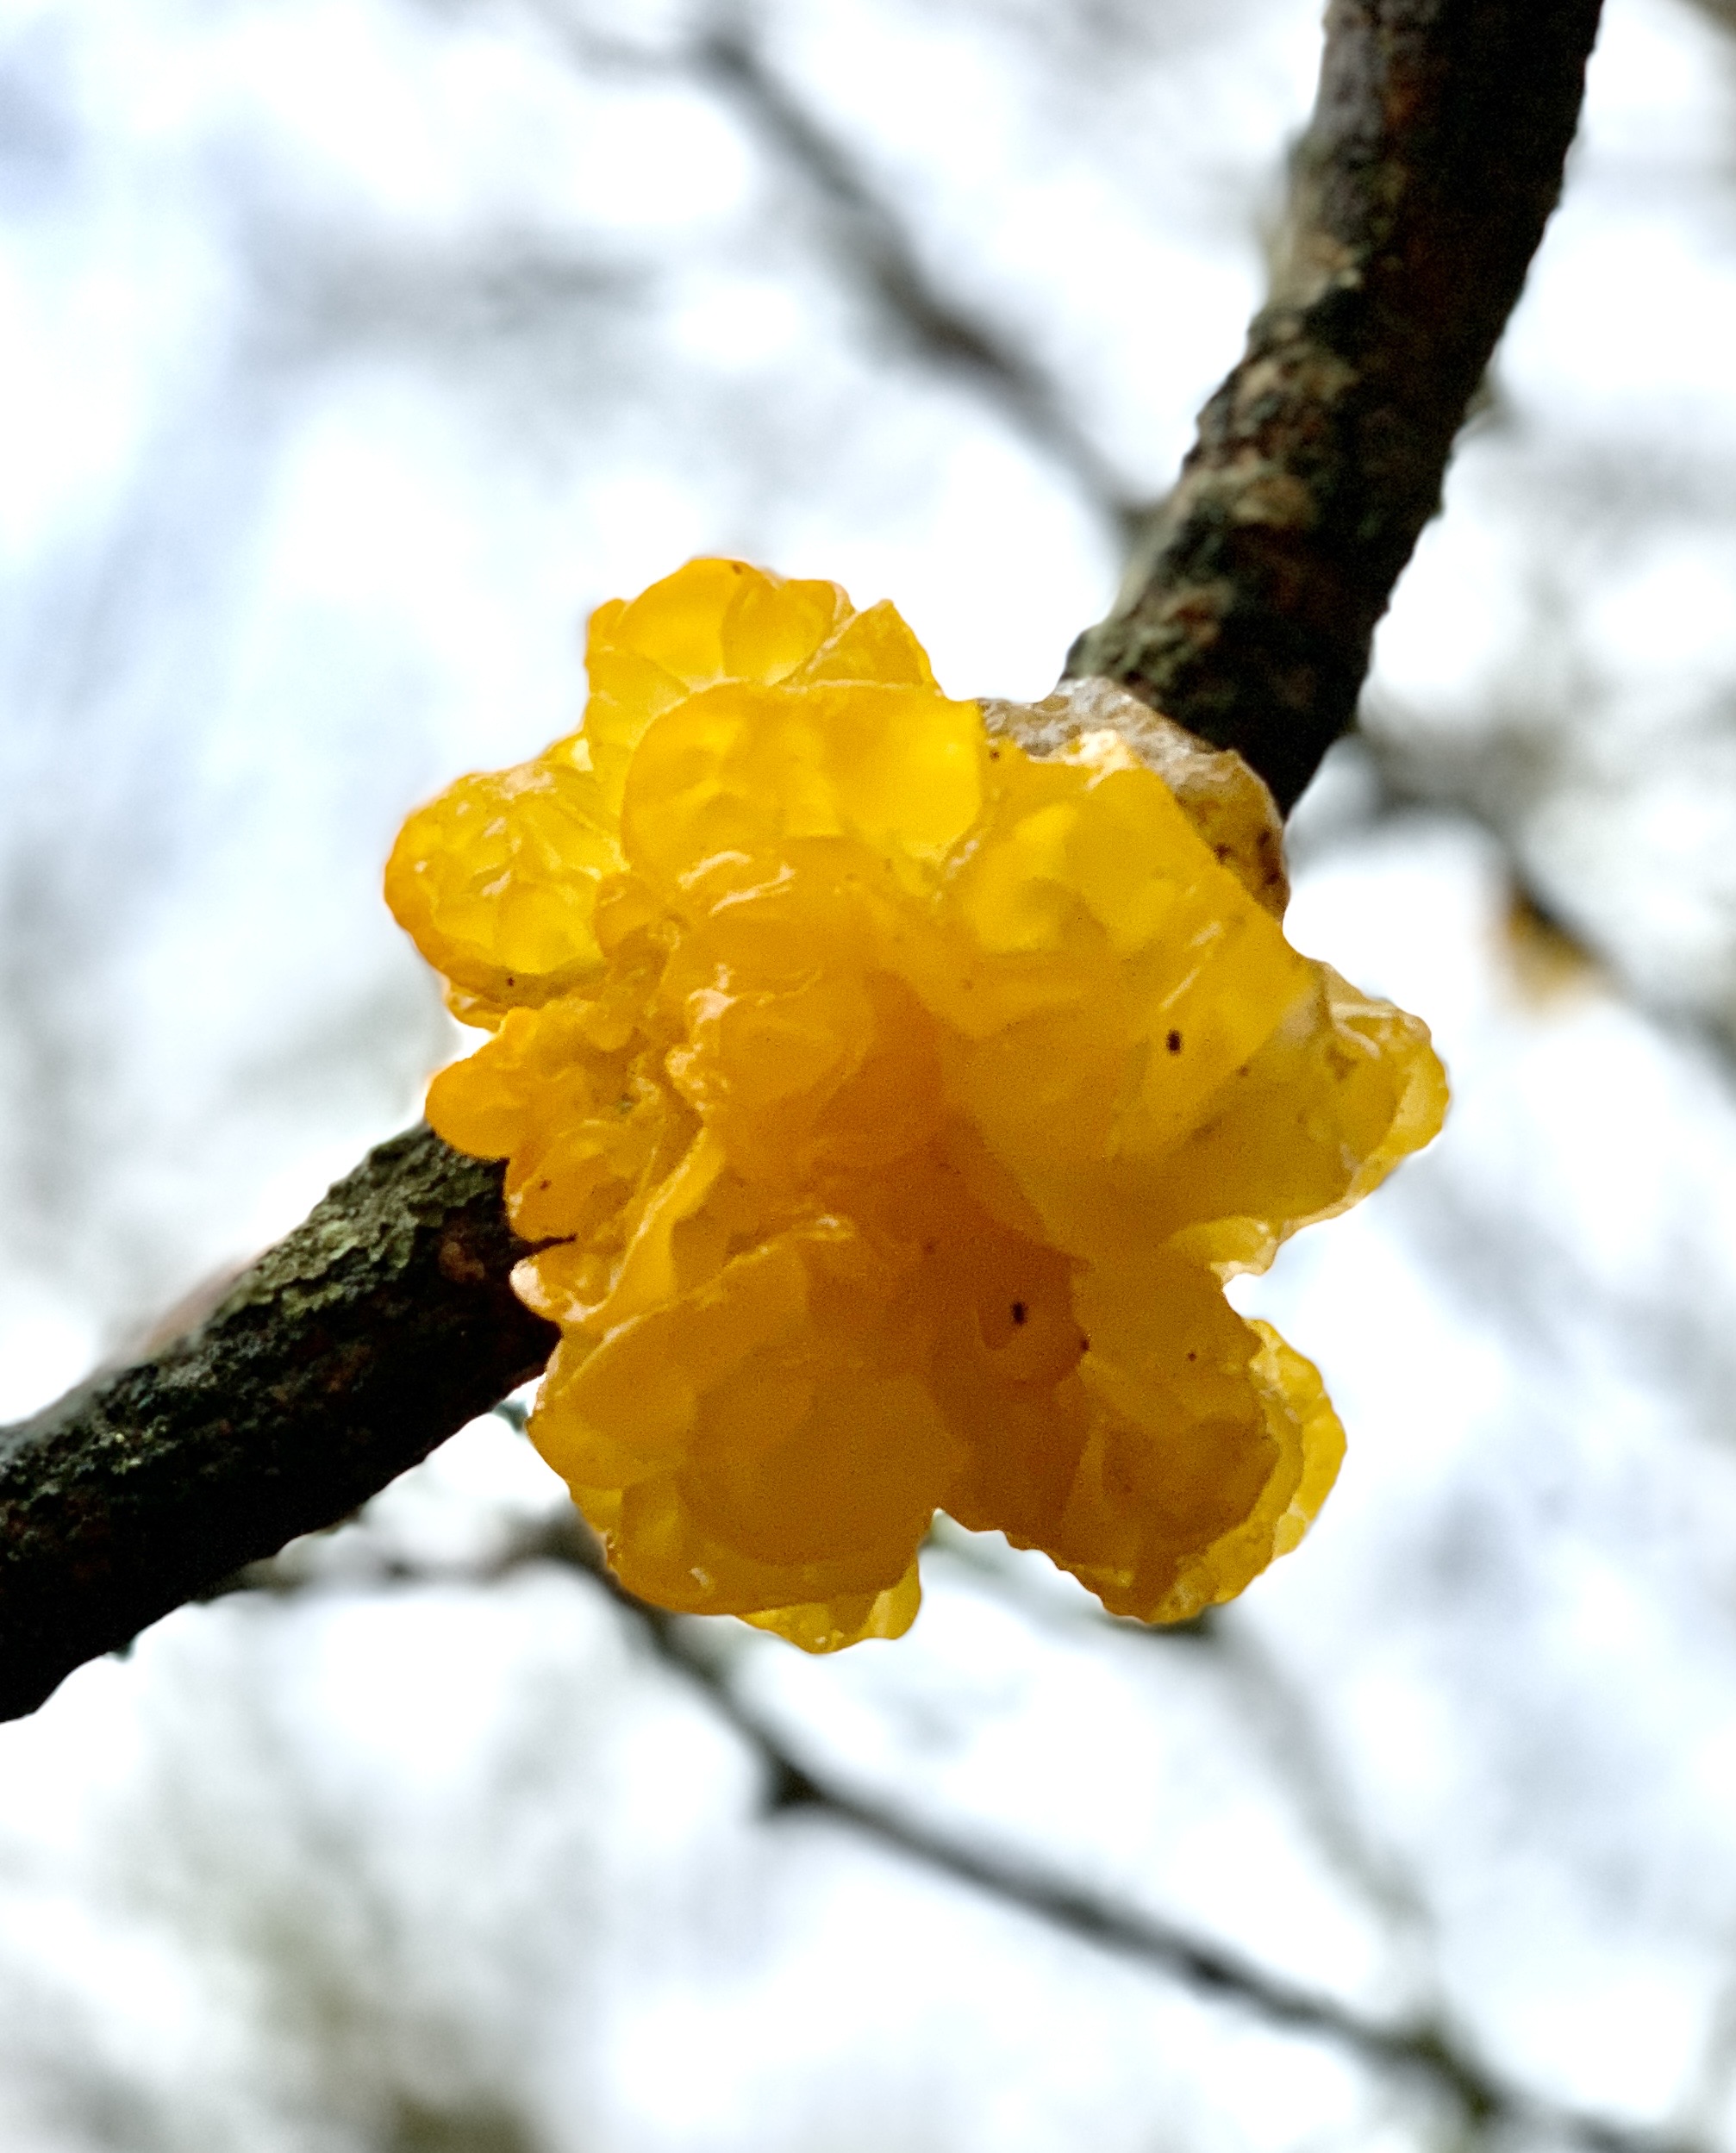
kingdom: Fungi
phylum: Basidiomycota
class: Tremellomycetes
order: Tremellales
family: Tremellaceae
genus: Tremella
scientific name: Tremella mesenterica
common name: gul bævresvamp
